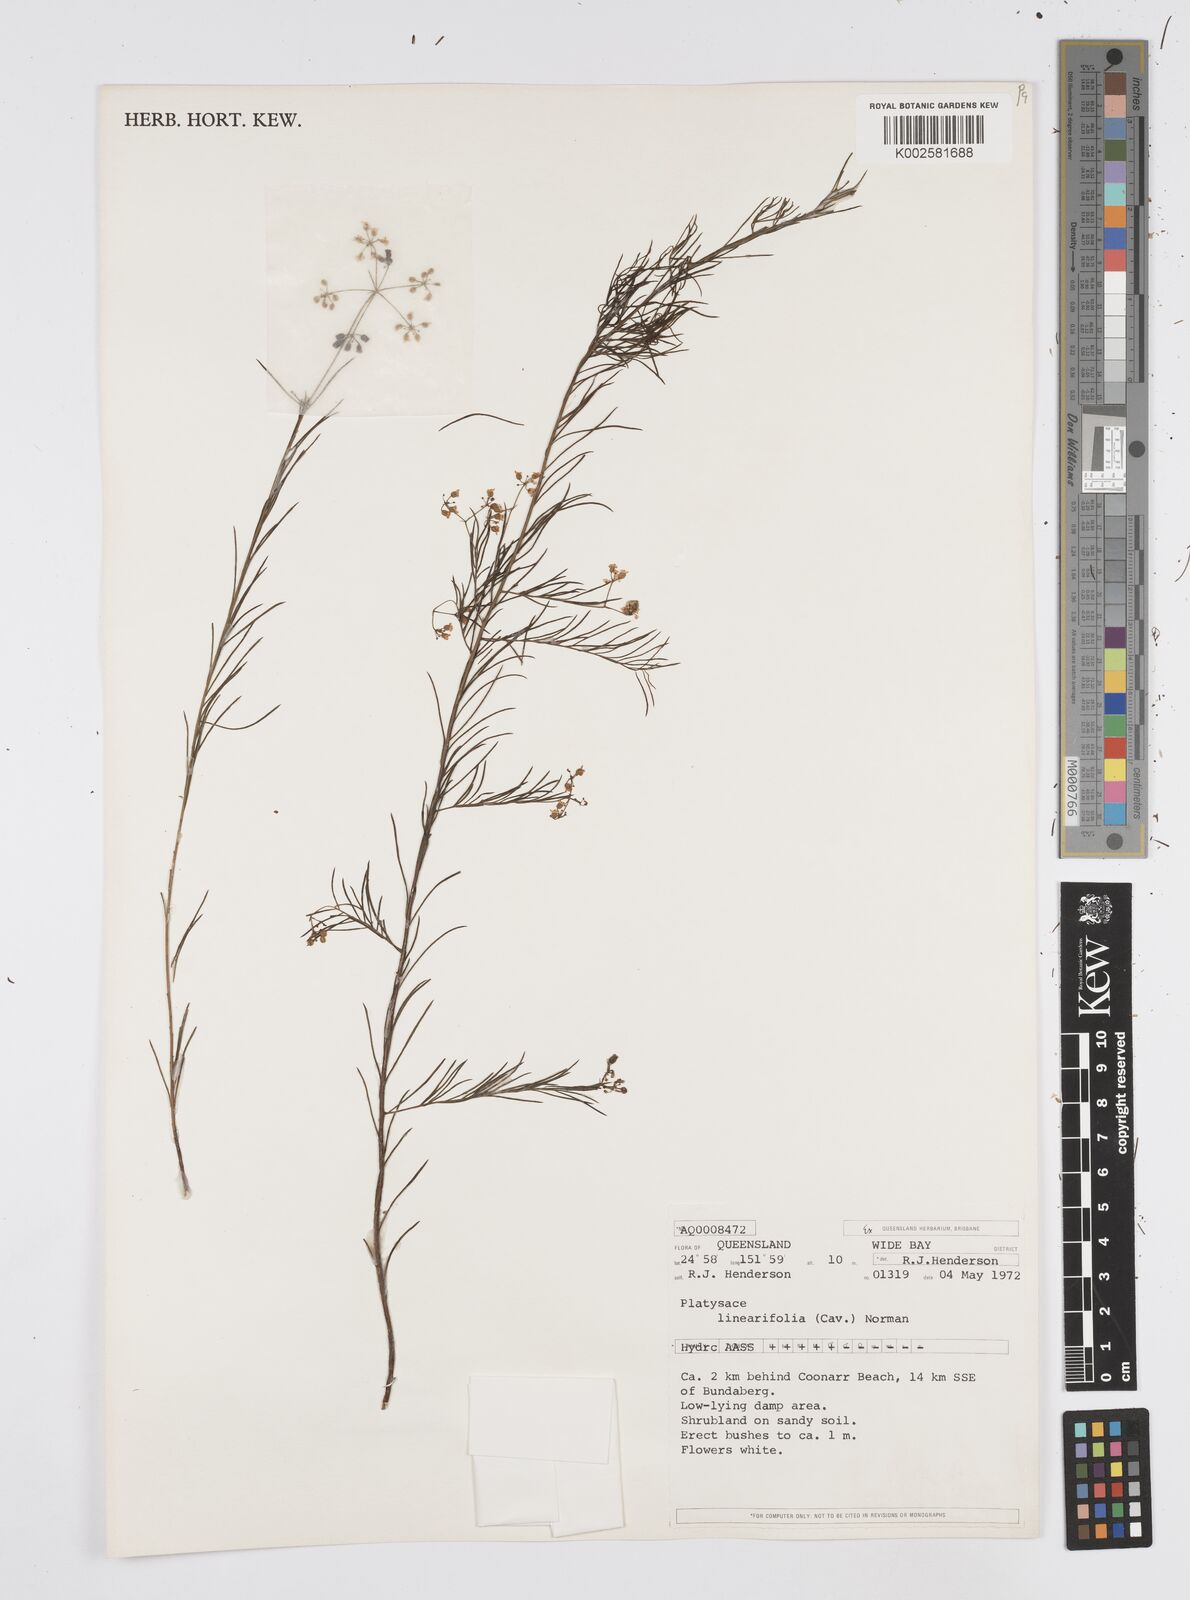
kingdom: Plantae
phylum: Tracheophyta
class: Magnoliopsida
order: Apiales
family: Apiaceae
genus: Platysace
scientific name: Platysace linearifolia
